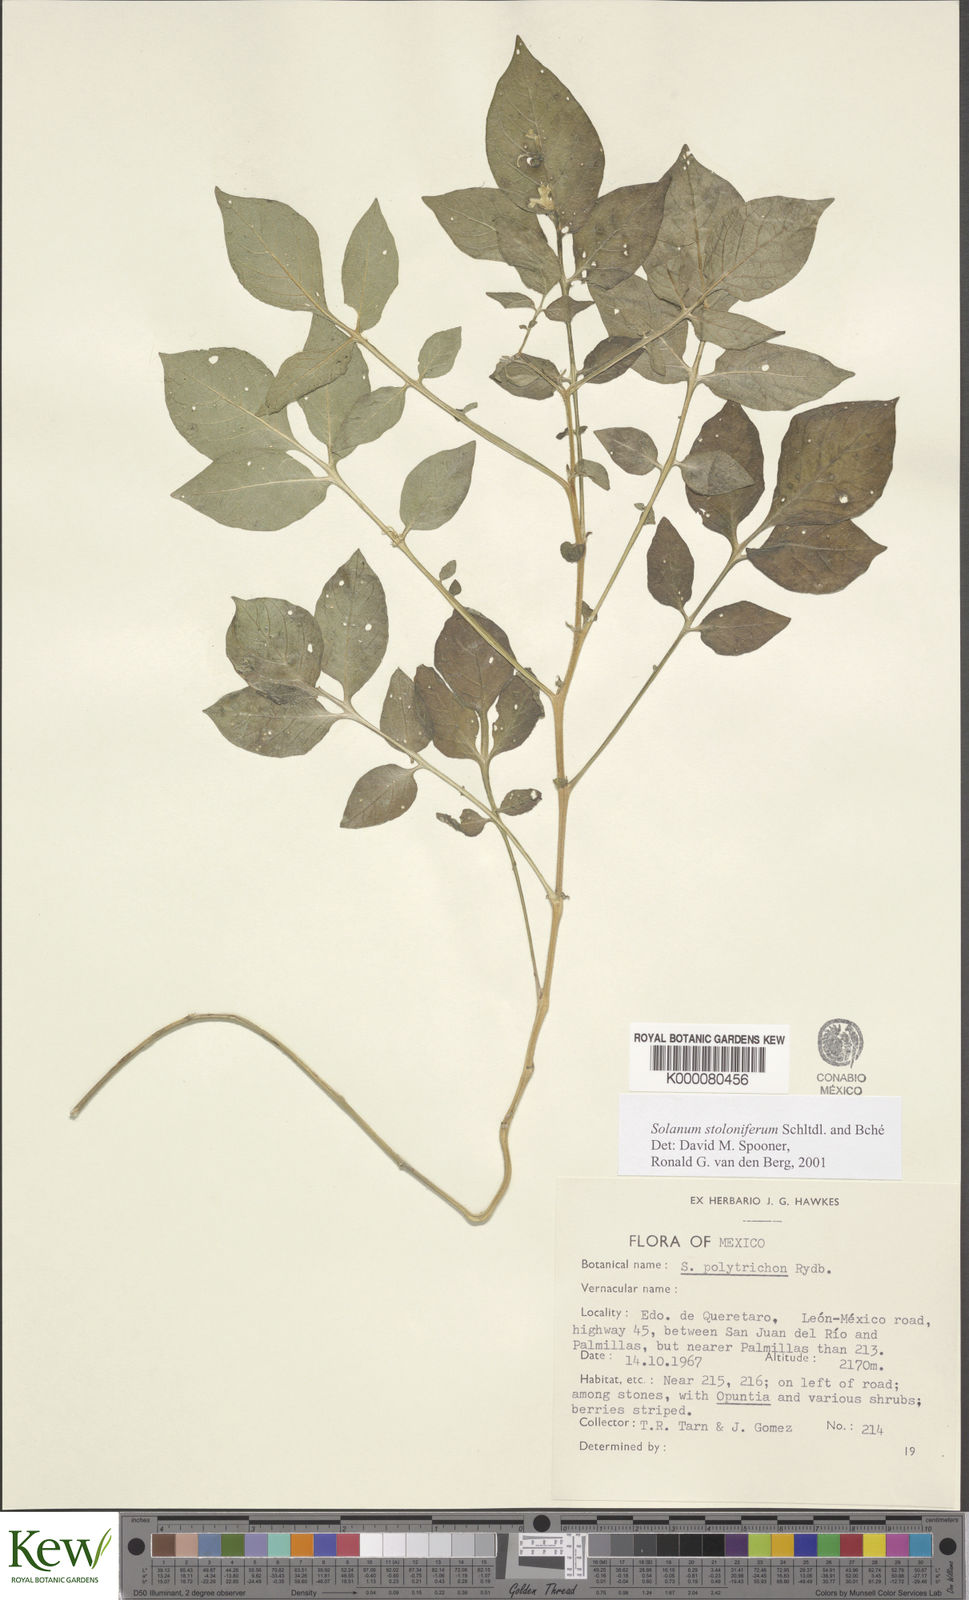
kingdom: Plantae
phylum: Tracheophyta
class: Magnoliopsida
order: Solanales
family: Solanaceae
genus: Solanum
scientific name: Solanum stoloniferum
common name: Fendler's nighshade
